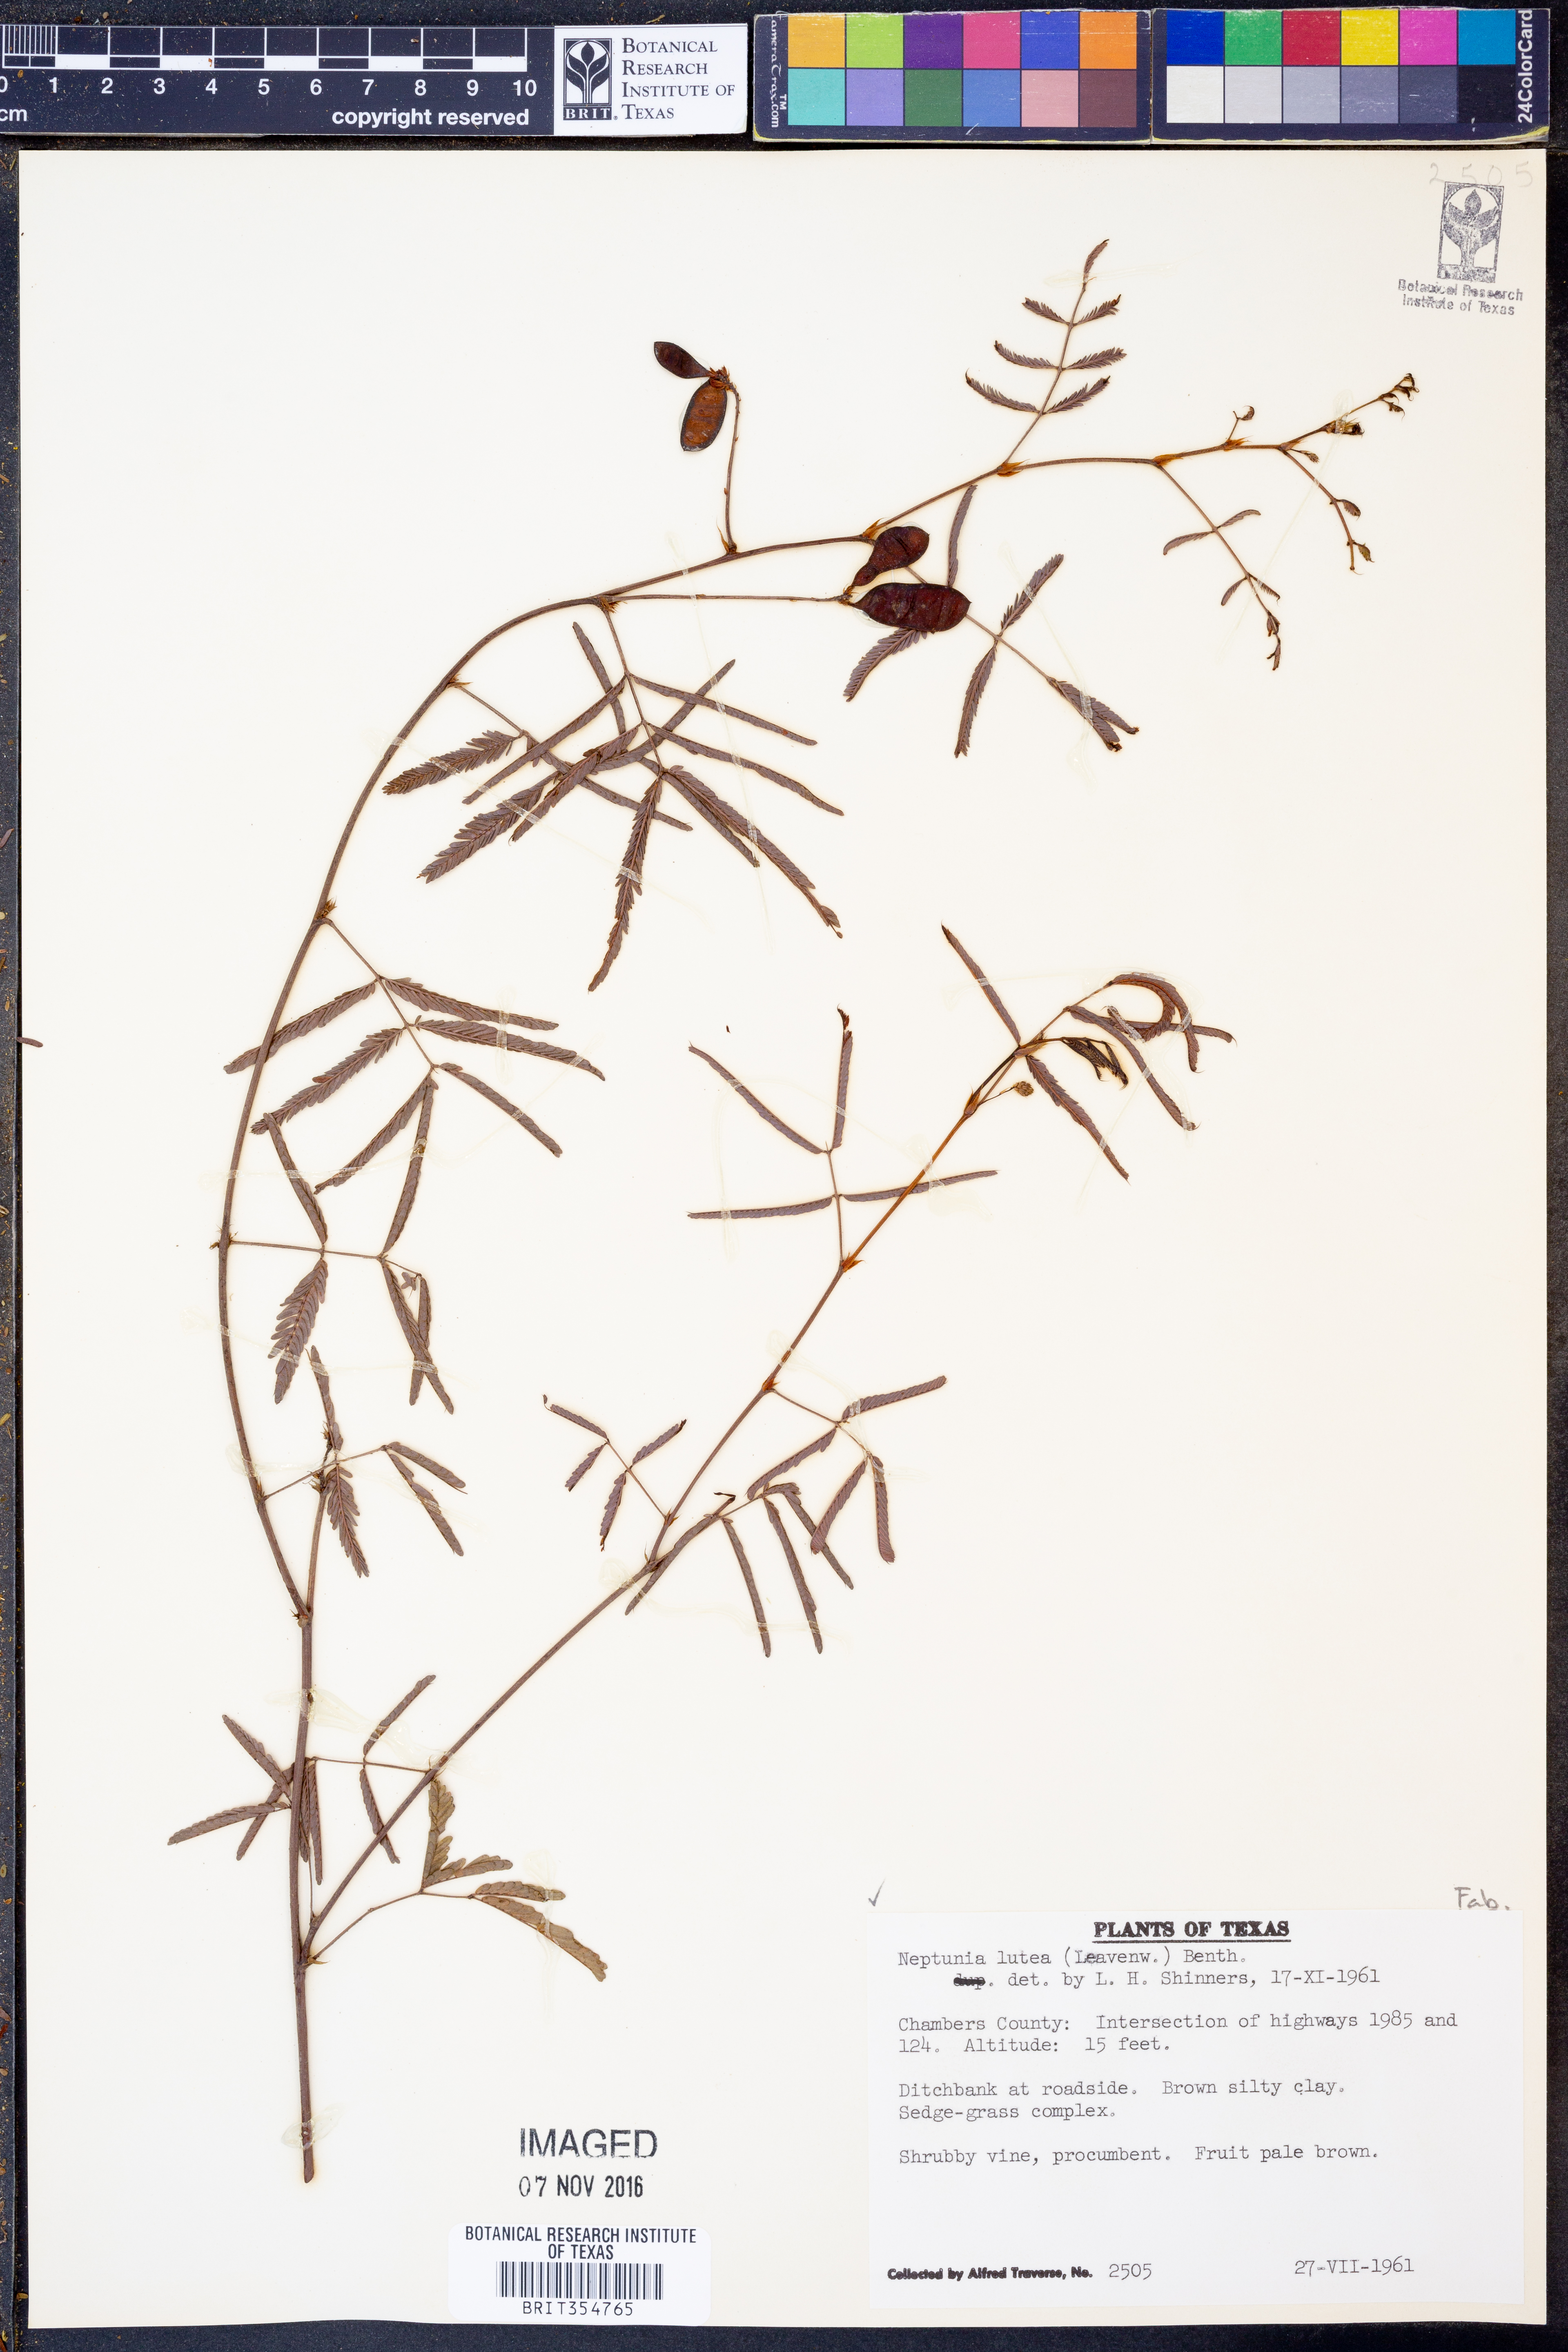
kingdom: Plantae
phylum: Tracheophyta
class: Magnoliopsida
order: Fabales
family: Fabaceae
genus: Neptunia
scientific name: Neptunia lutea
